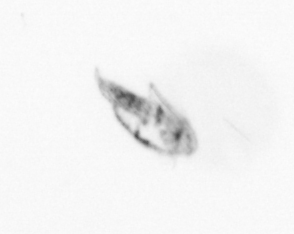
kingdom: Animalia
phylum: Arthropoda
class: Copepoda
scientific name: Copepoda
